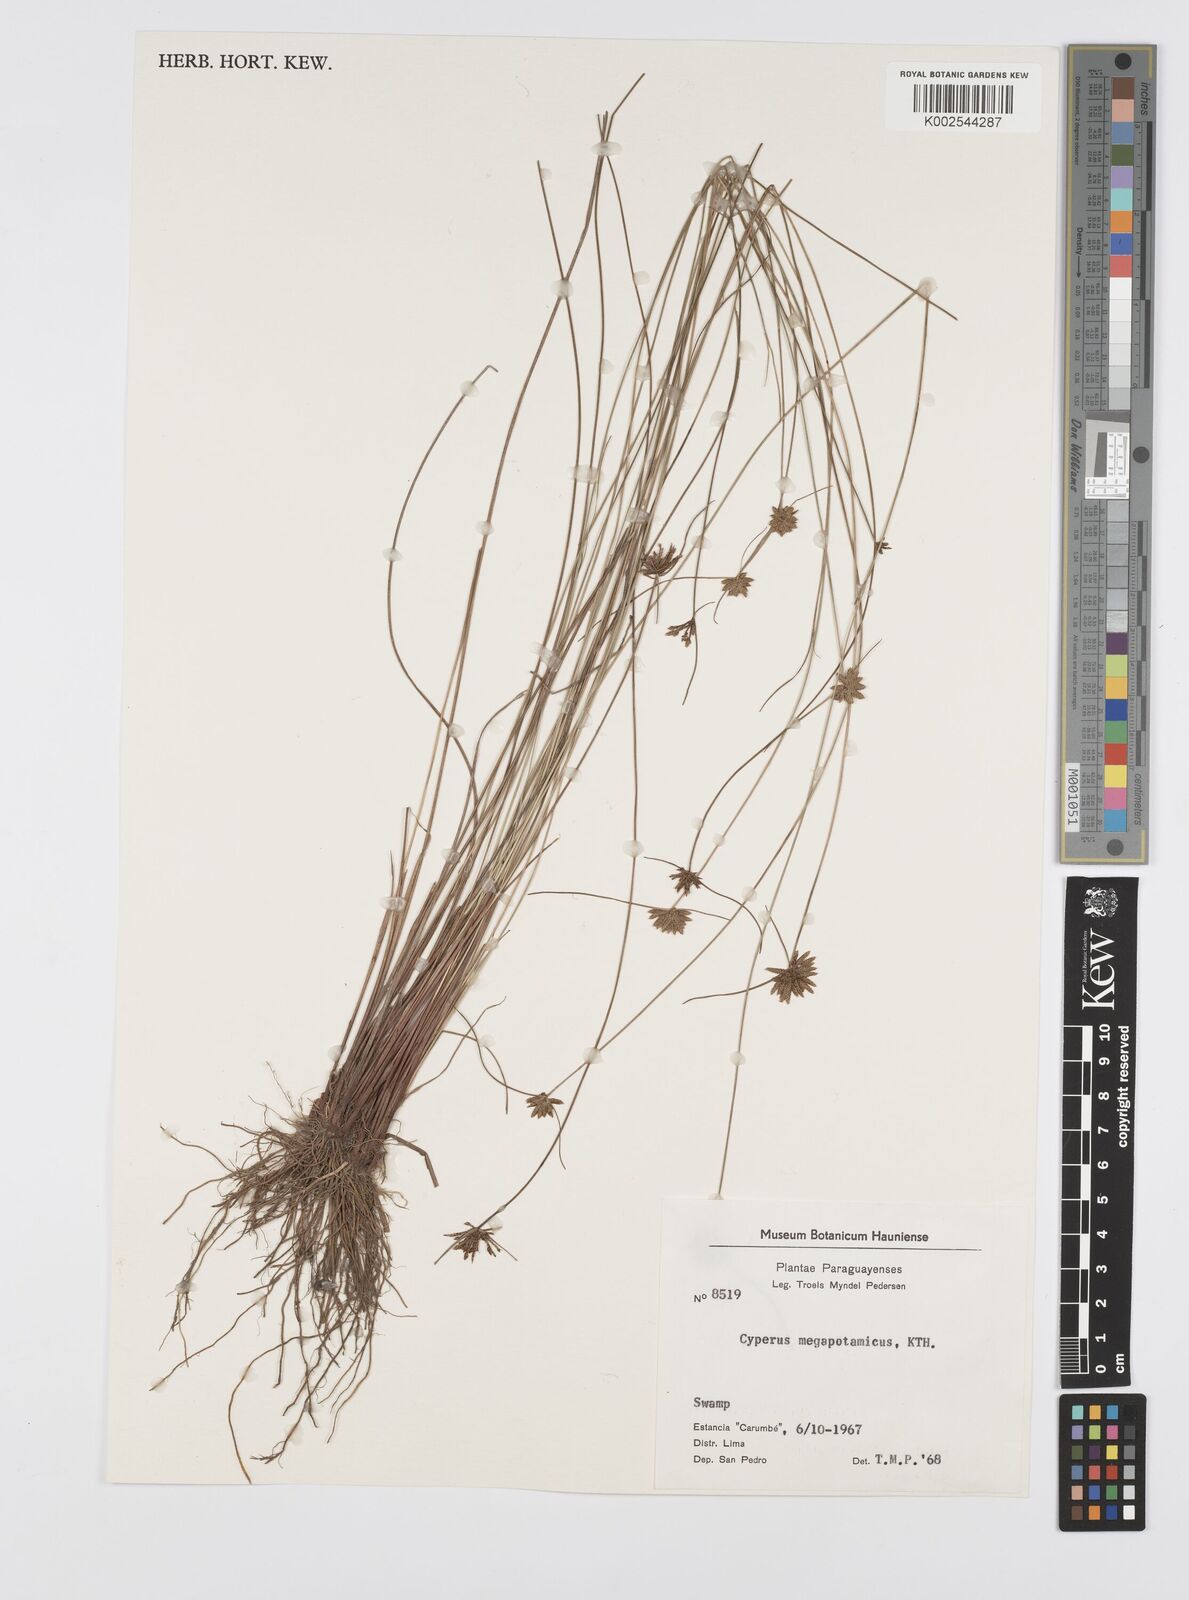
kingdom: Plantae
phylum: Tracheophyta
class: Liliopsida
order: Poales
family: Cyperaceae
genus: Cyperus
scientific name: Cyperus megapotamicus
